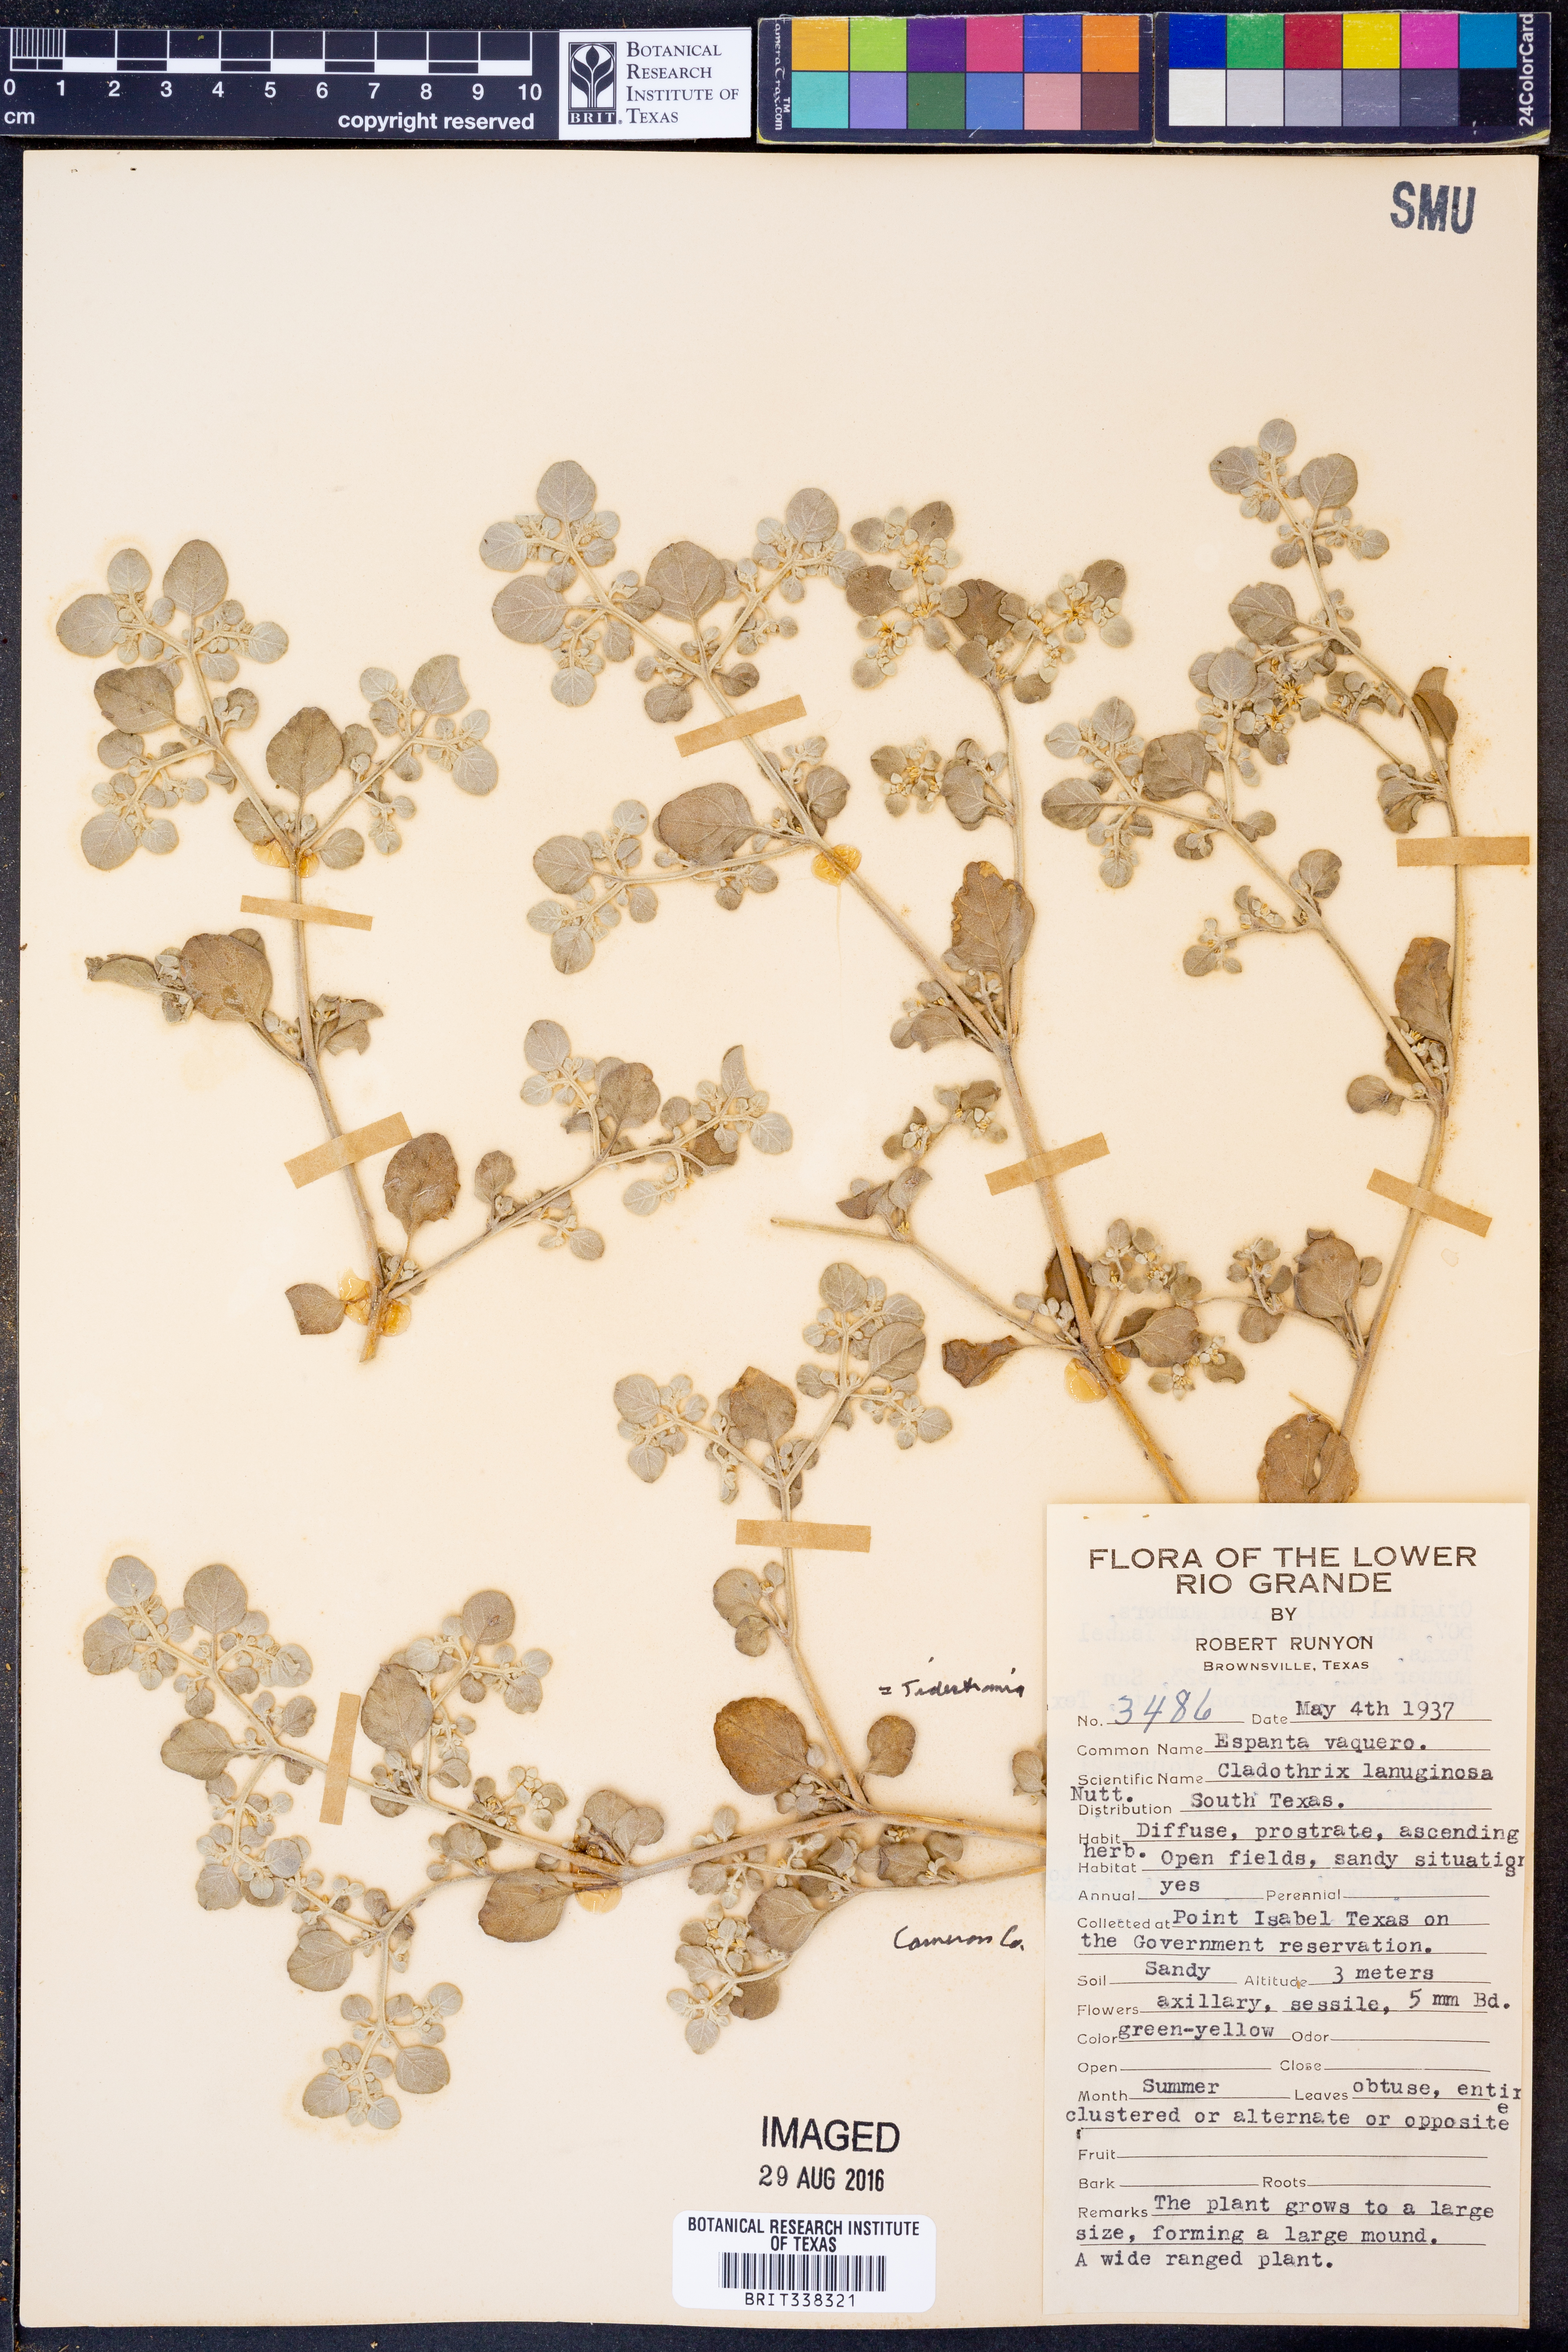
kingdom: Plantae
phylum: Tracheophyta
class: Magnoliopsida
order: Caryophyllales
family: Amaranthaceae
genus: Tidestromia
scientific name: Tidestromia lanuginosa
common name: Woolly tidestromia
